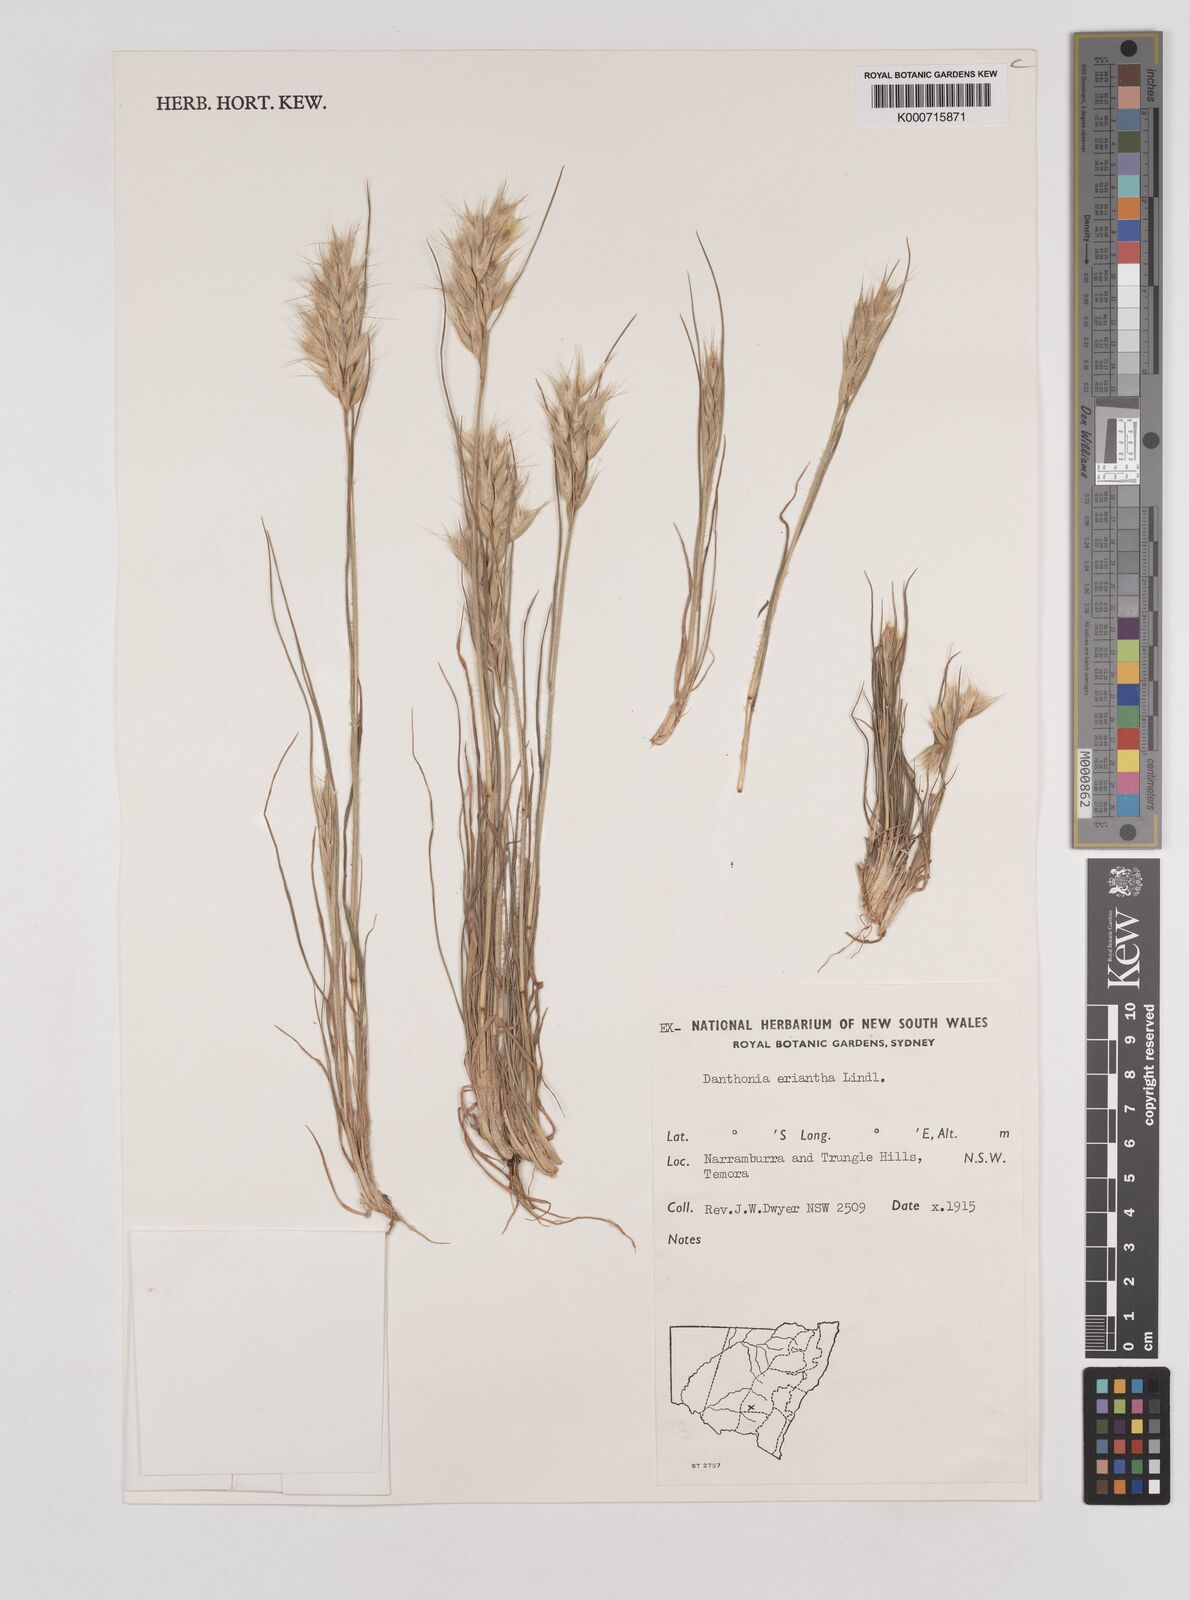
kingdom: Plantae
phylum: Tracheophyta
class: Liliopsida
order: Poales
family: Poaceae
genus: Rytidosperma
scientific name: Rytidosperma erianthum
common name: Hill wallaby grass
